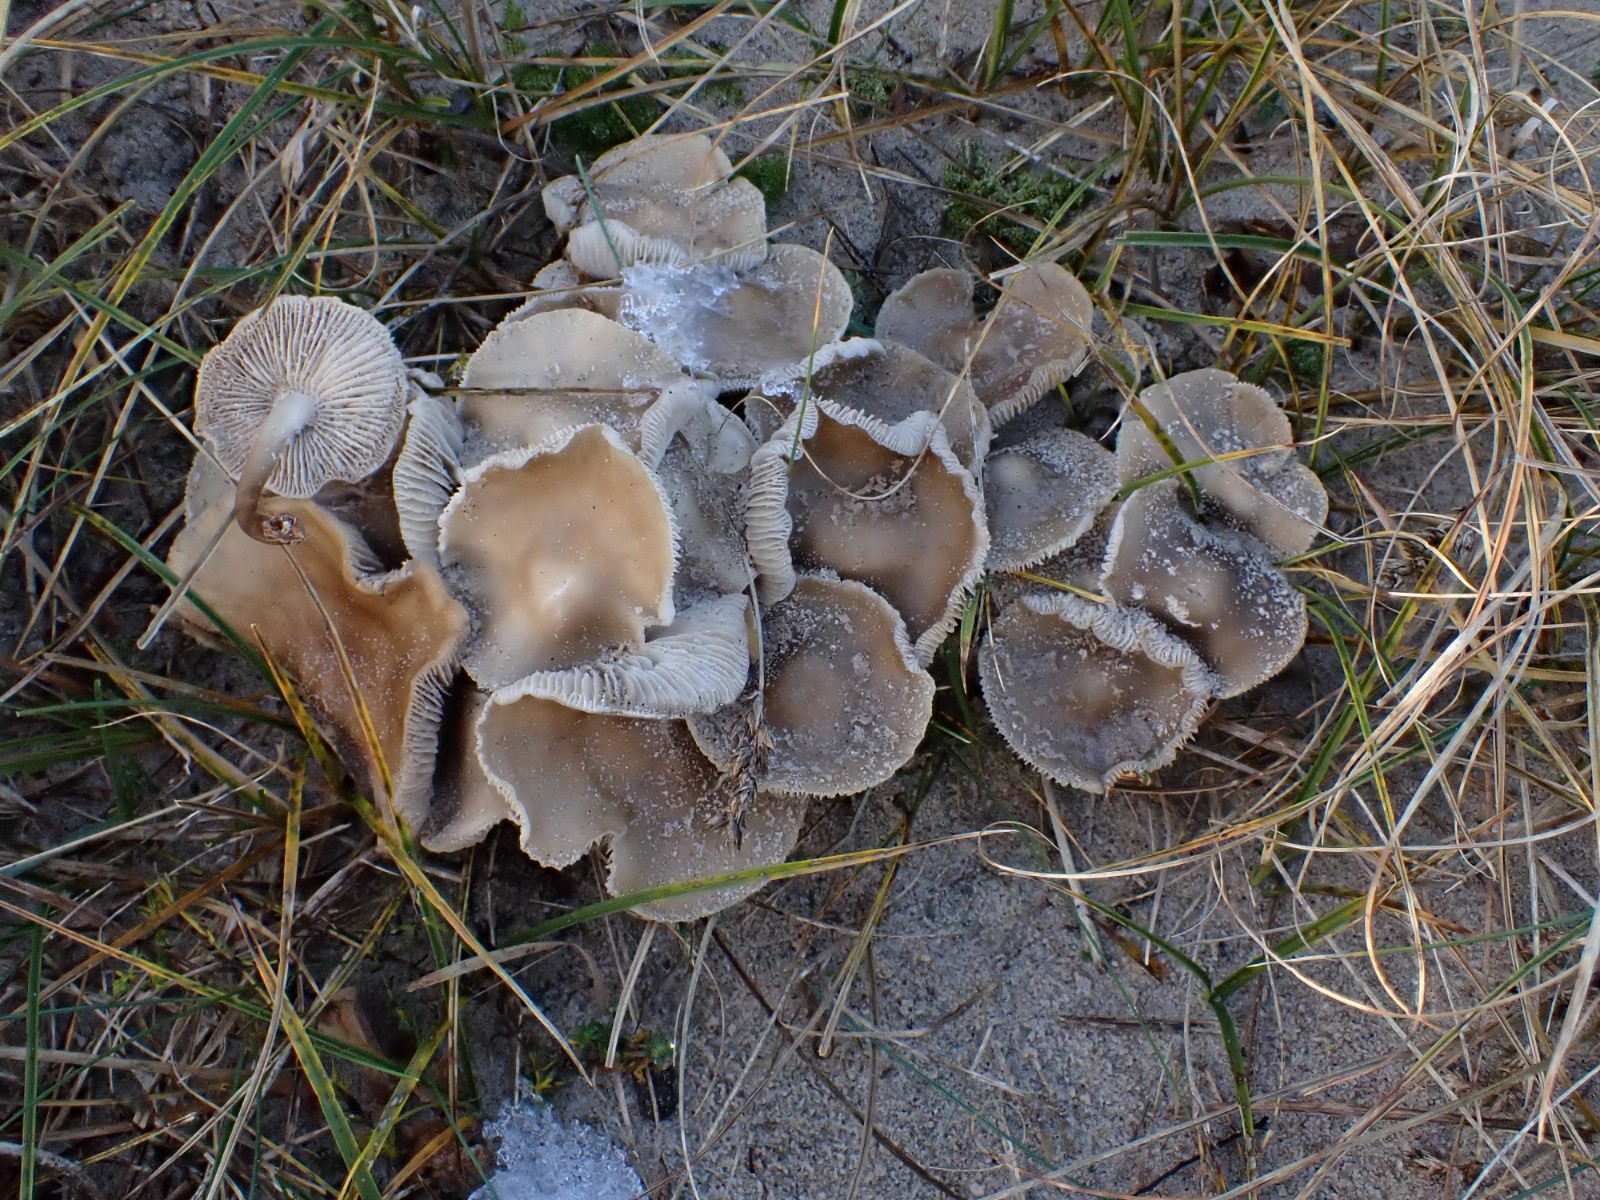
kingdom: Fungi
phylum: Basidiomycota
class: Agaricomycetes
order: Agaricales
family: Mycenaceae
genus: Mycena
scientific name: Mycena galericulata
